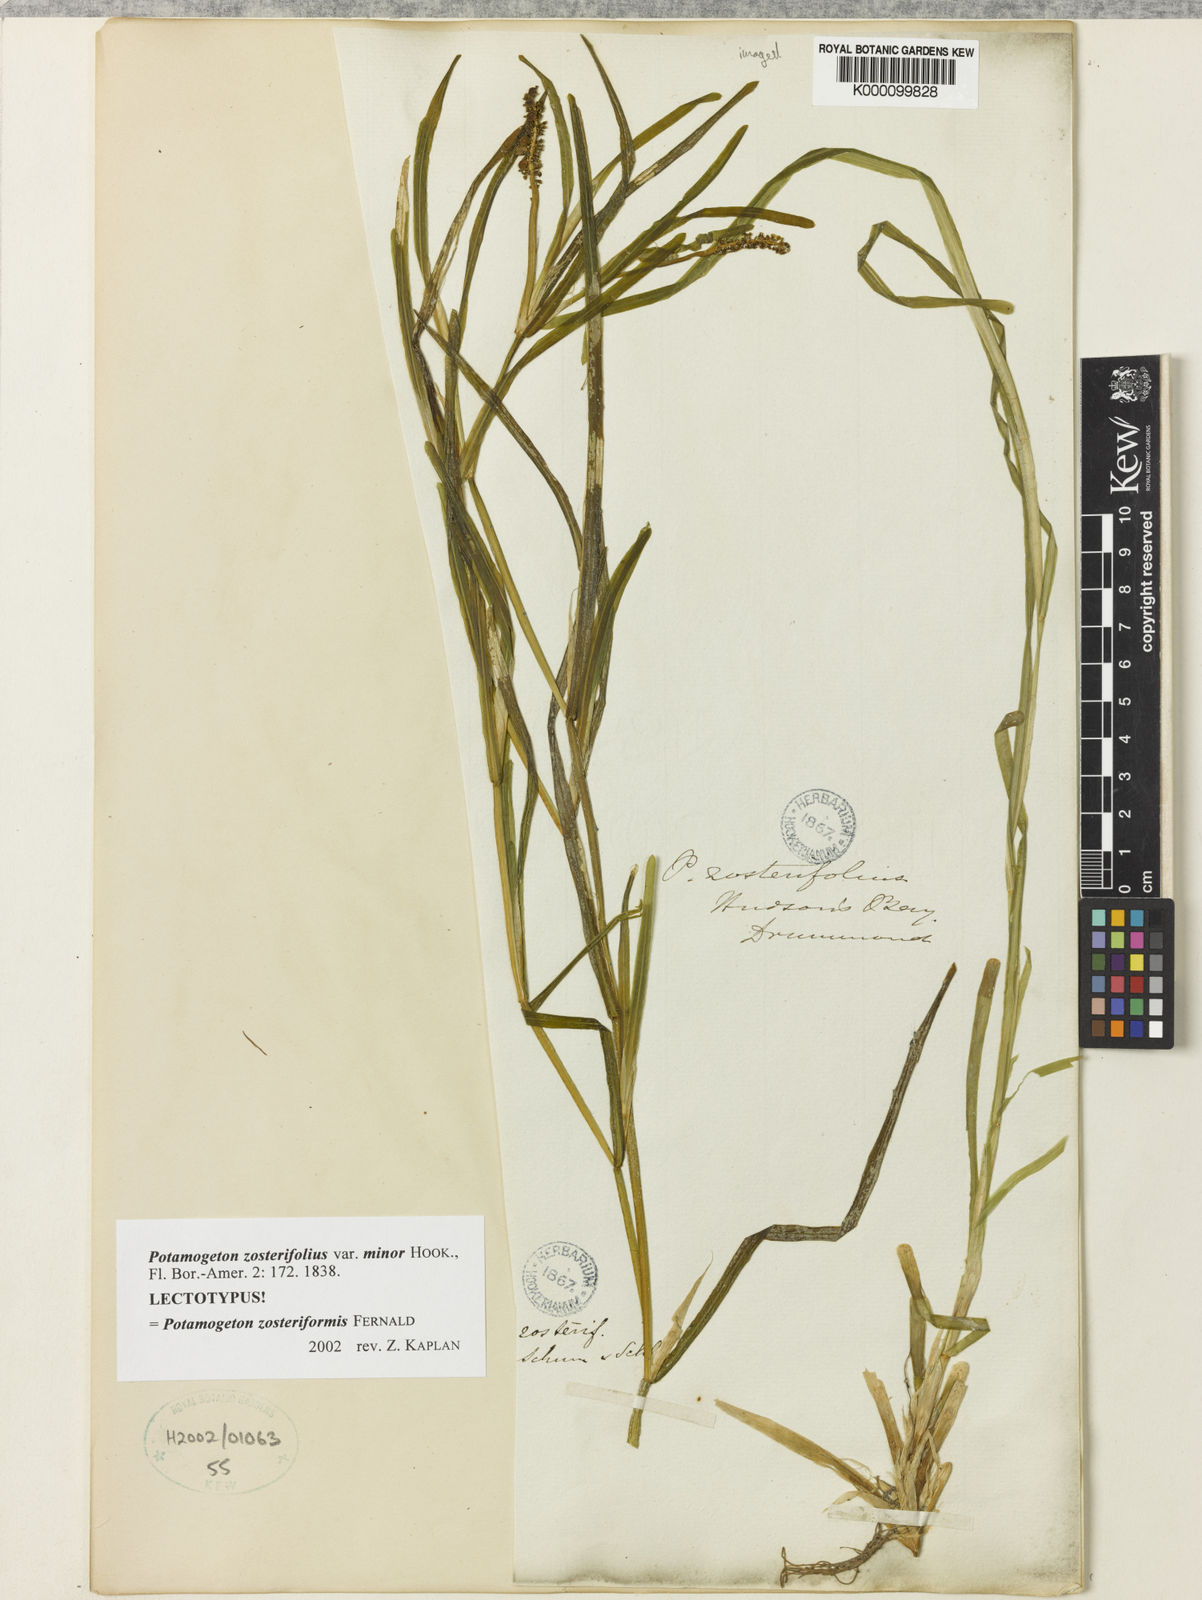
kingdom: Plantae
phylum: Tracheophyta
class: Liliopsida
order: Alismatales
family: Potamogetonaceae
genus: Potamogeton
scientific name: Potamogeton zosteriformis
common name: Eelgrass pondweed
